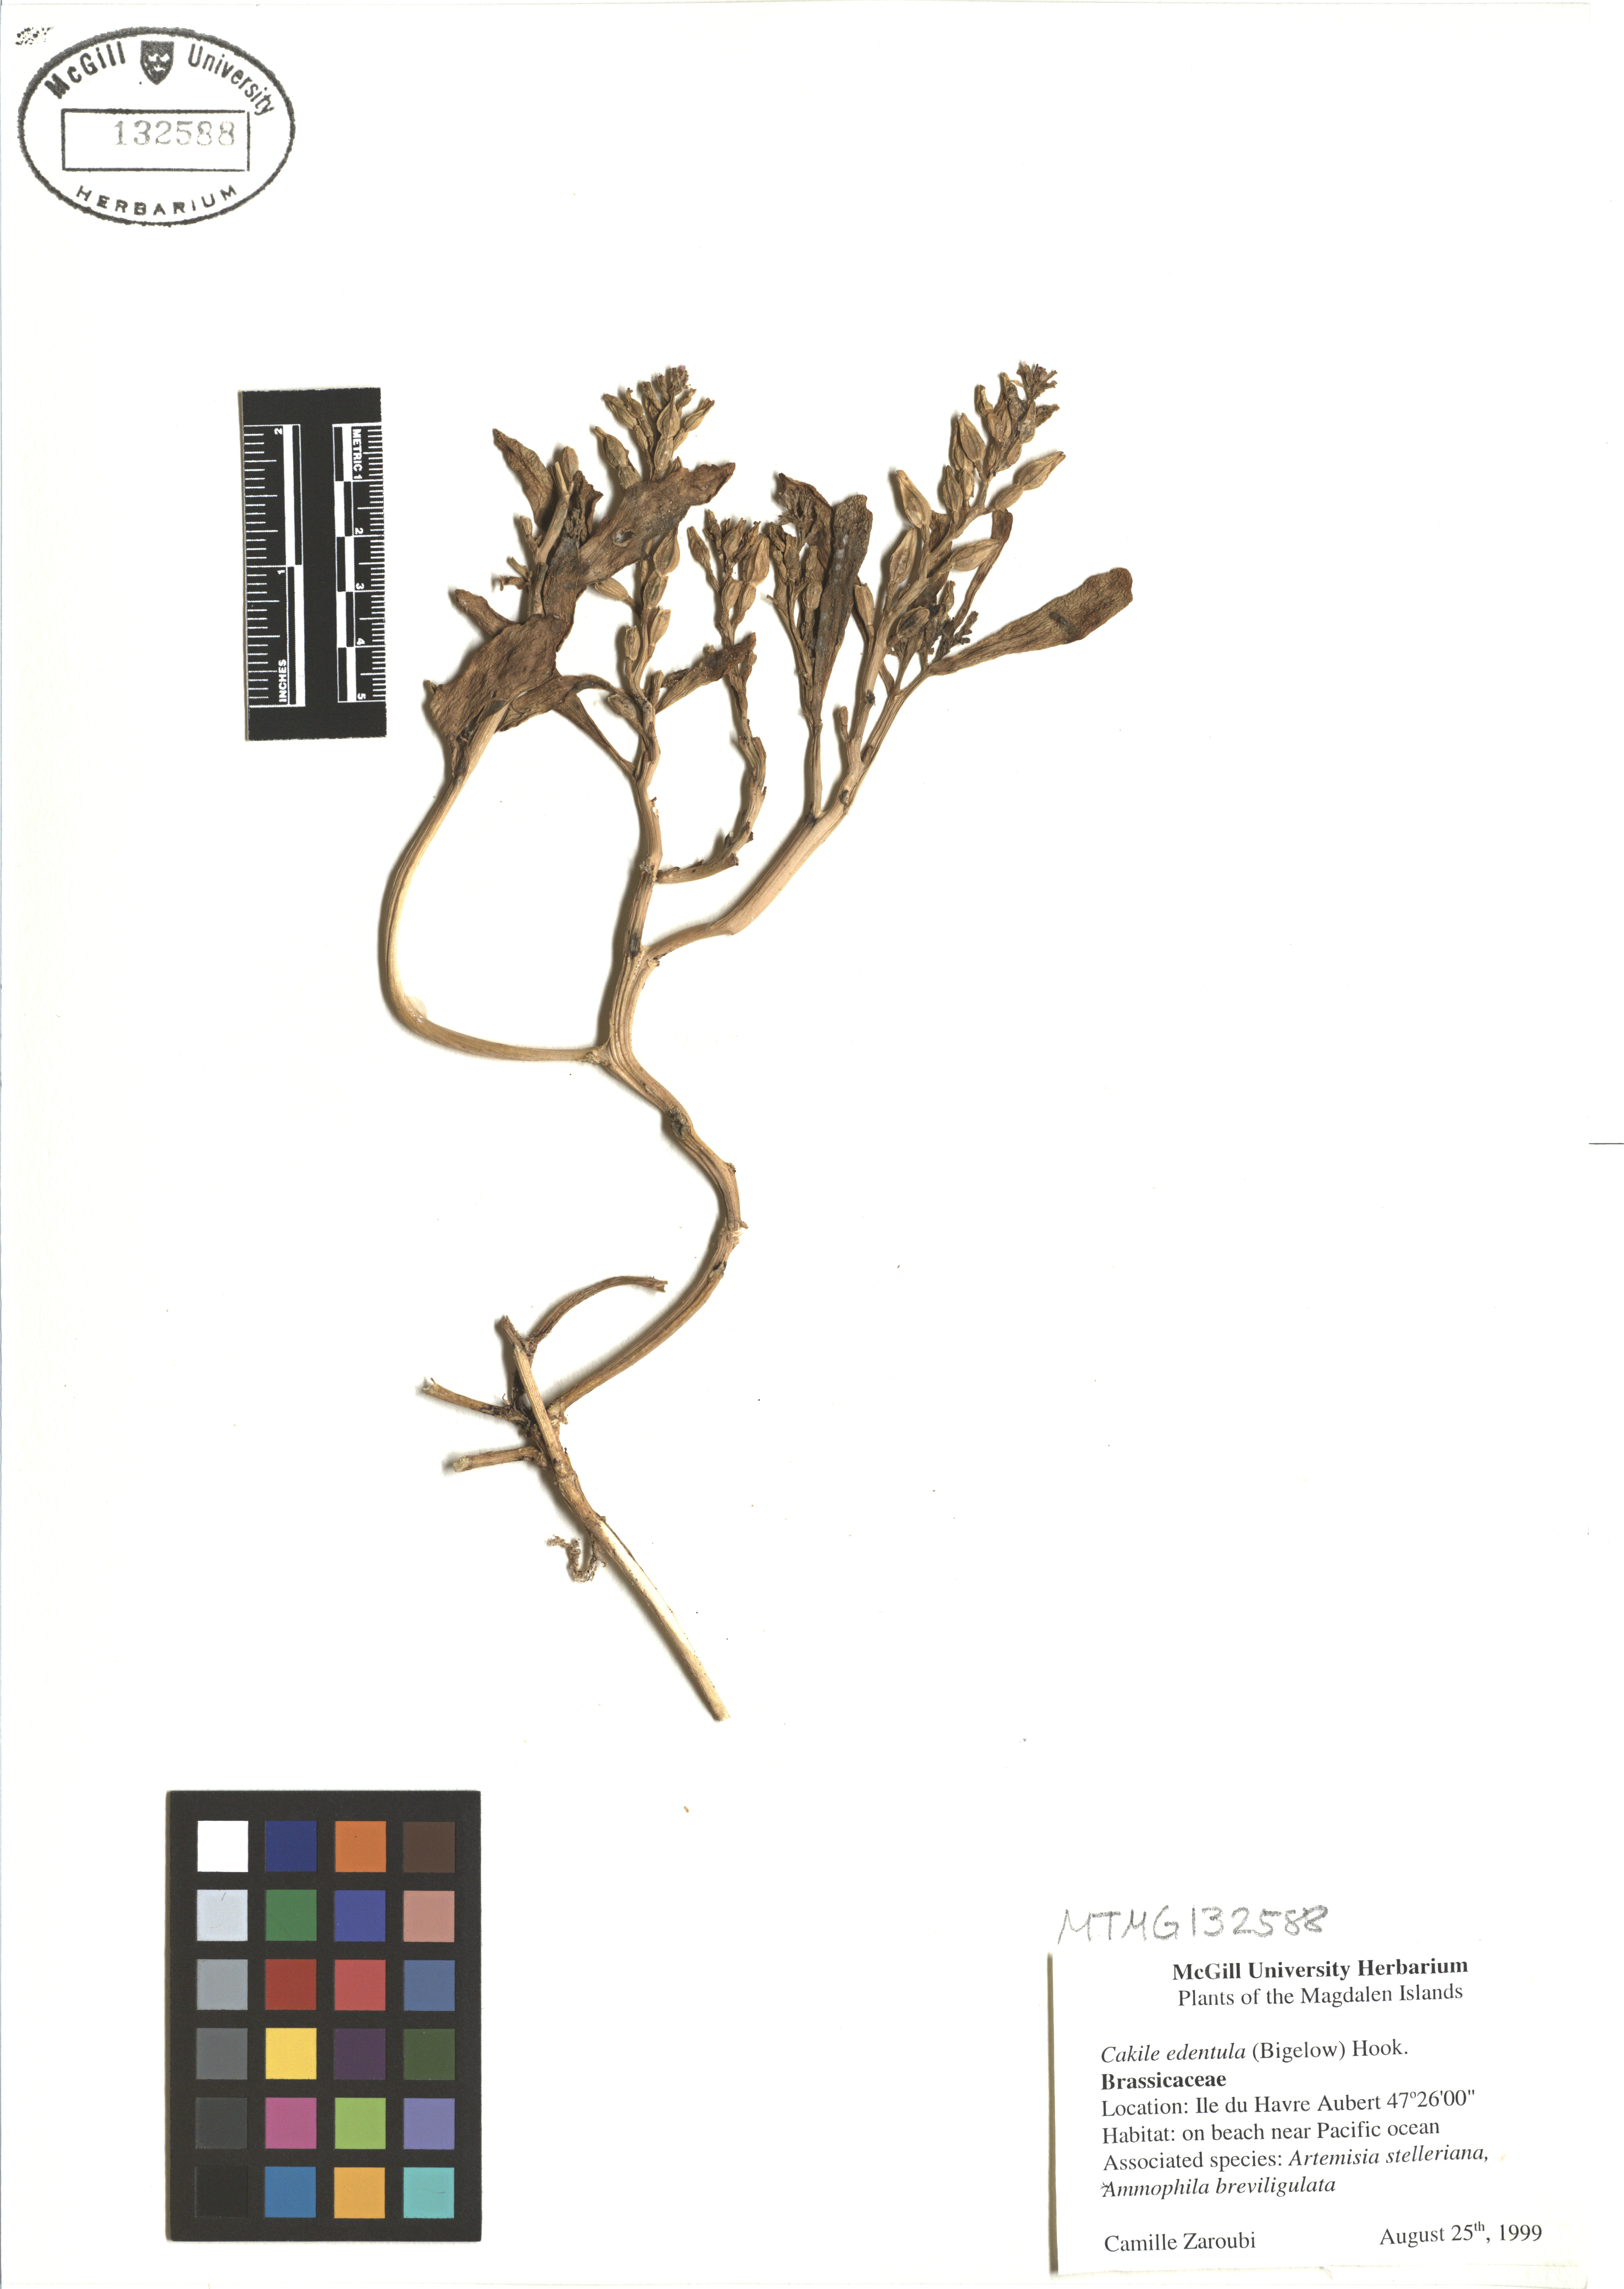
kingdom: Plantae
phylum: Tracheophyta
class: Magnoliopsida
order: Brassicales
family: Brassicaceae
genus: Cakile
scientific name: Cakile edentula
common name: American sea rocket
